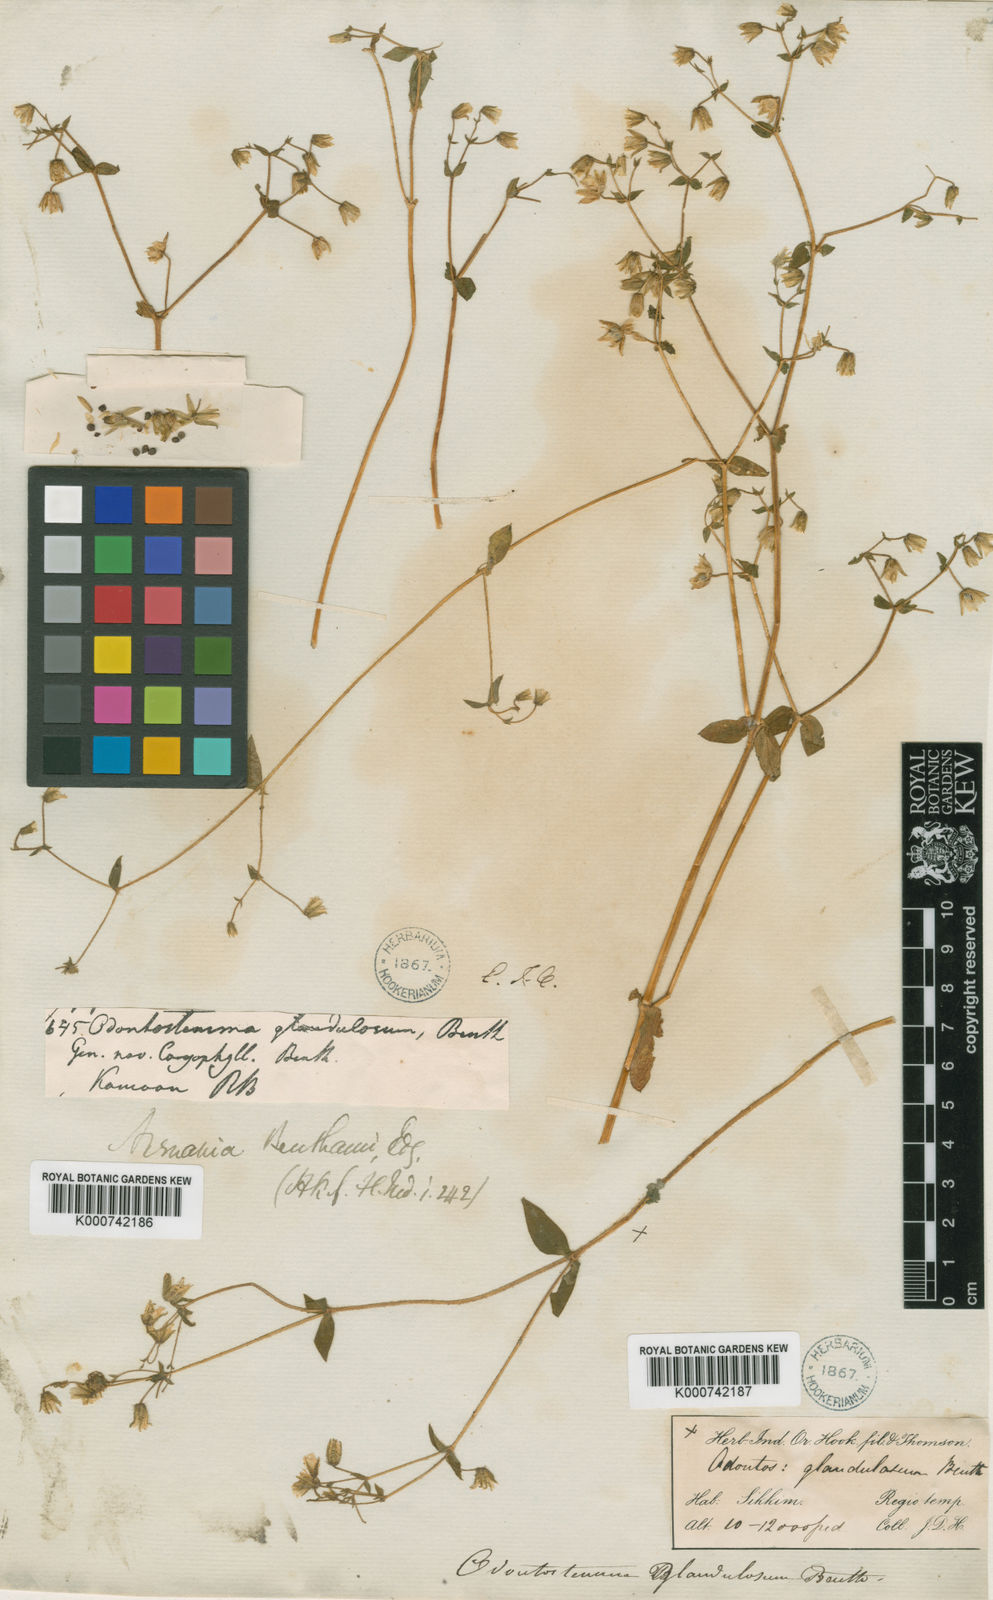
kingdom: Plantae
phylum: Tracheophyta
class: Magnoliopsida
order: Caryophyllales
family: Caryophyllaceae
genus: Odontostemma
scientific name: Odontostemma glandulosum
